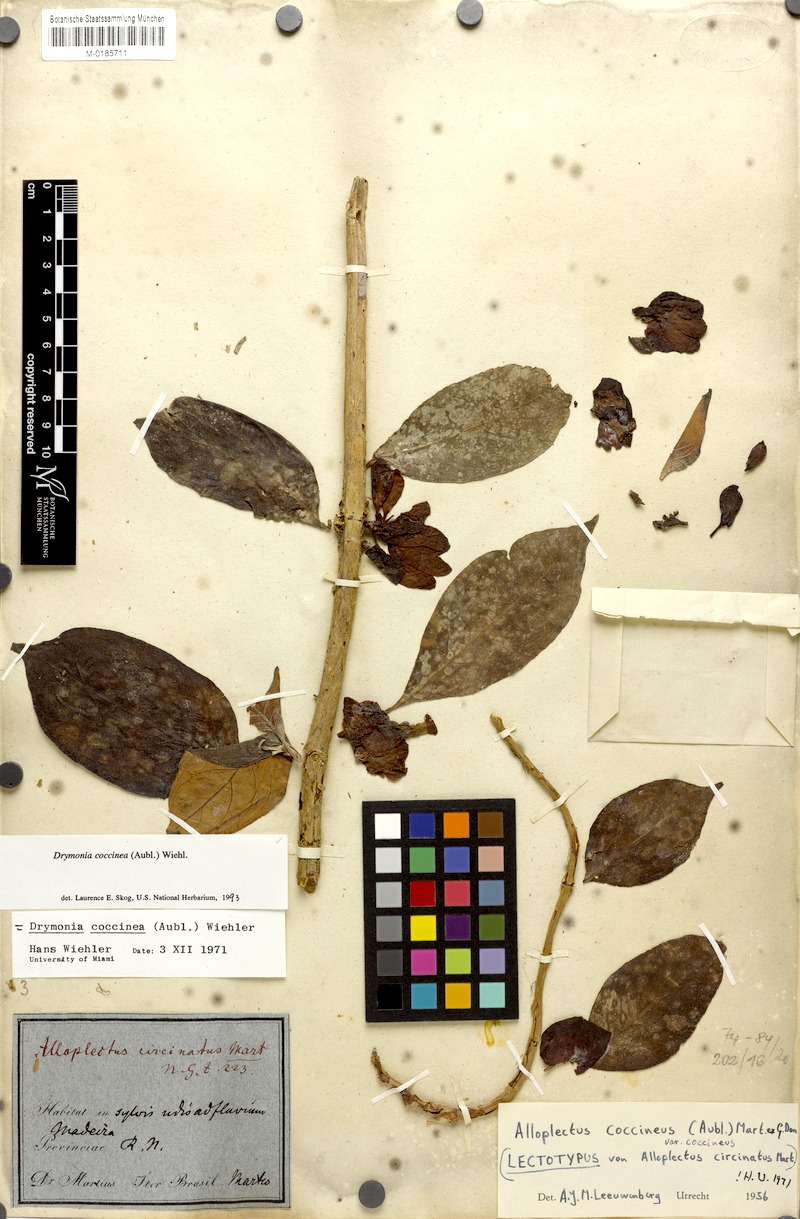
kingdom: Plantae
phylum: Tracheophyta
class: Magnoliopsida
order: Lamiales
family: Gesneriaceae
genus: Drymonia
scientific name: Drymonia coccinea
